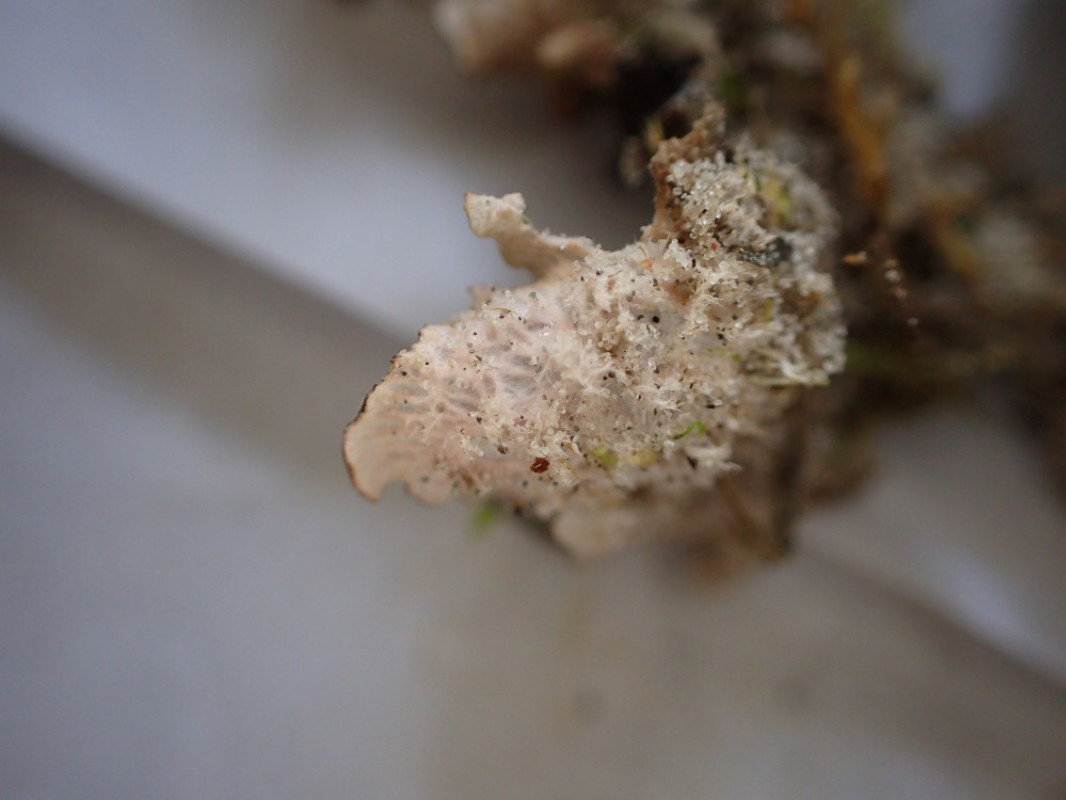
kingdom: Fungi
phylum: Ascomycota
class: Lecanoromycetes
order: Peltigerales
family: Peltigeraceae
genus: Peltigera
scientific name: Peltigera canina
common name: hunde-skjoldlav
